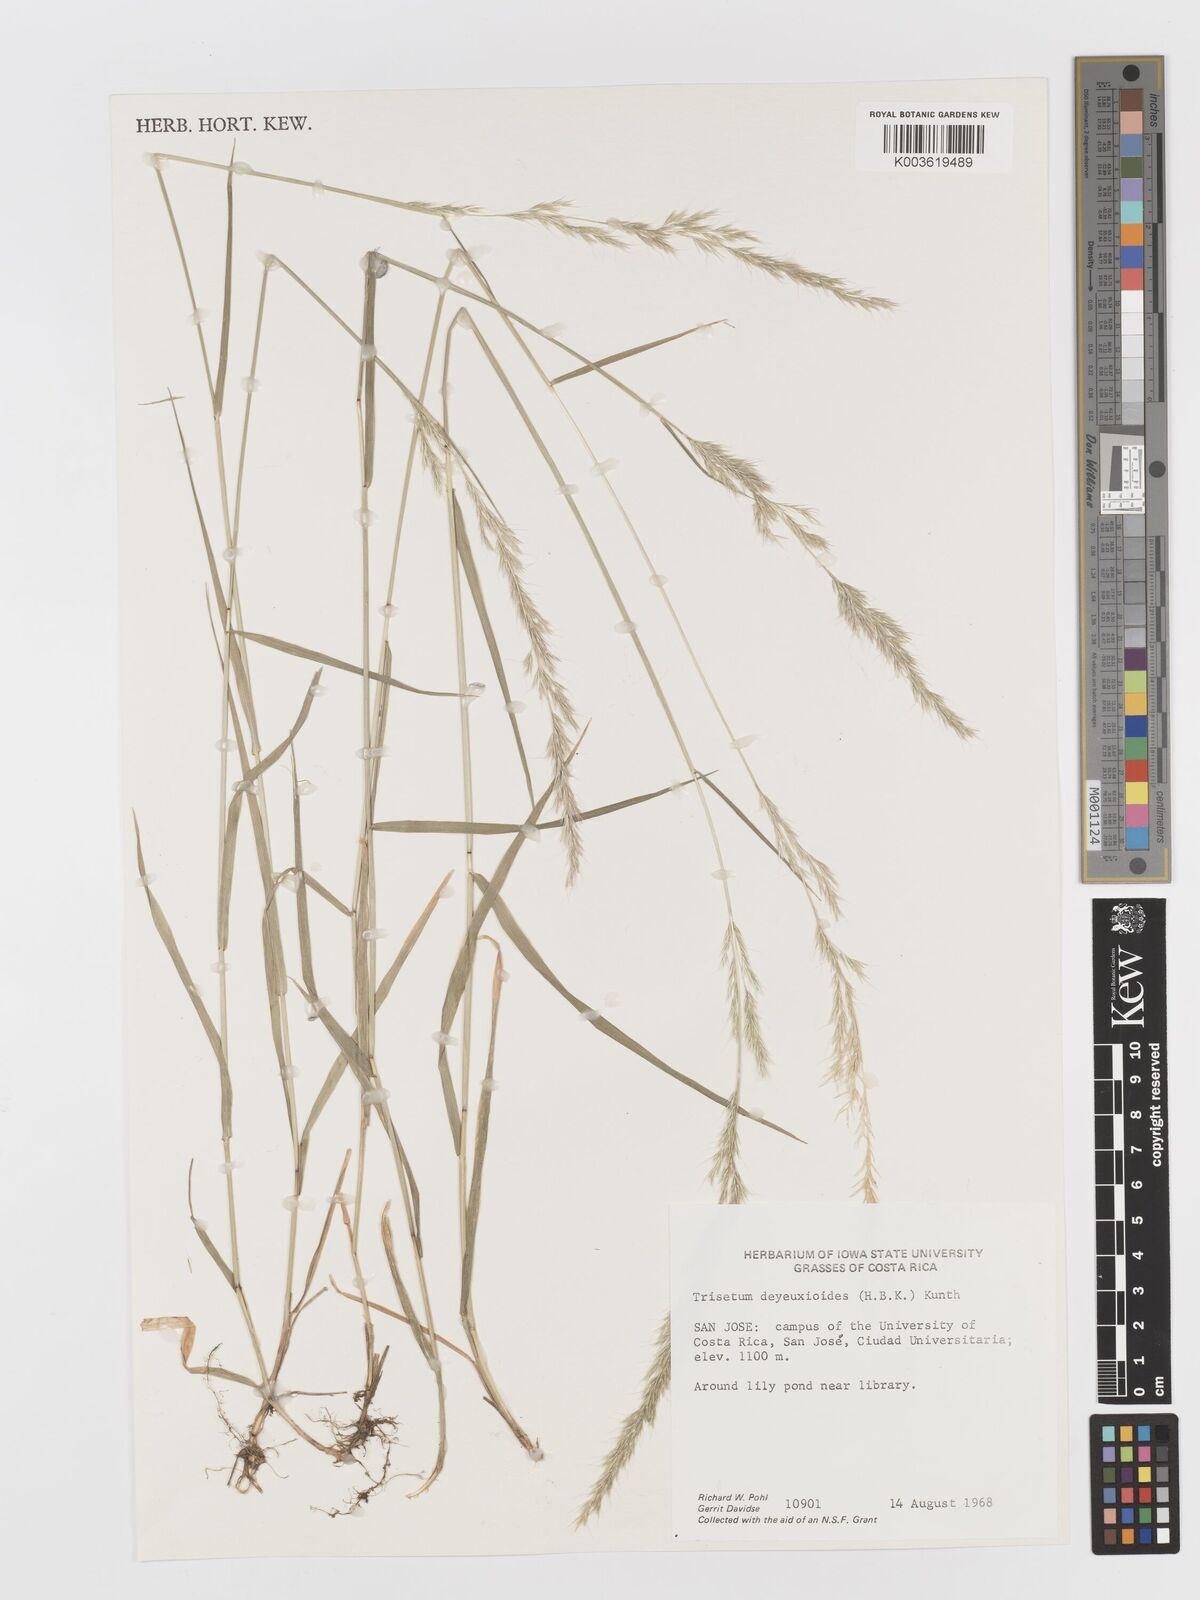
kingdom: Plantae
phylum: Tracheophyta
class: Liliopsida
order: Poales
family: Poaceae
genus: Peyritschia
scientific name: Peyritschia deyeuxioides
